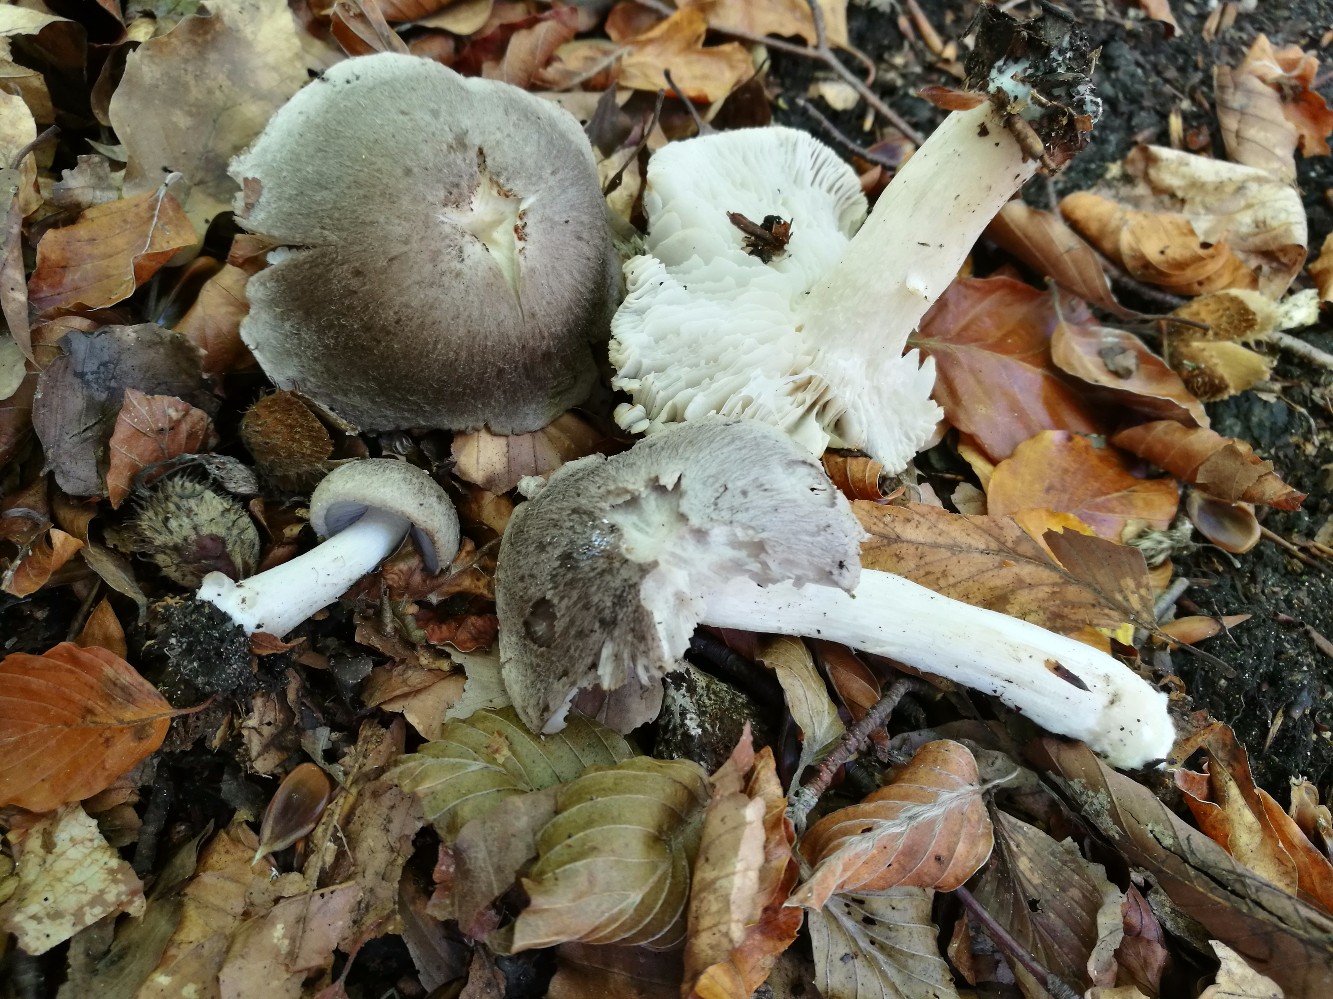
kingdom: Fungi
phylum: Basidiomycota
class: Agaricomycetes
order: Agaricales
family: Tricholomataceae
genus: Tricholoma
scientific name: Tricholoma terreum
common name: jordfarvet ridderhat
